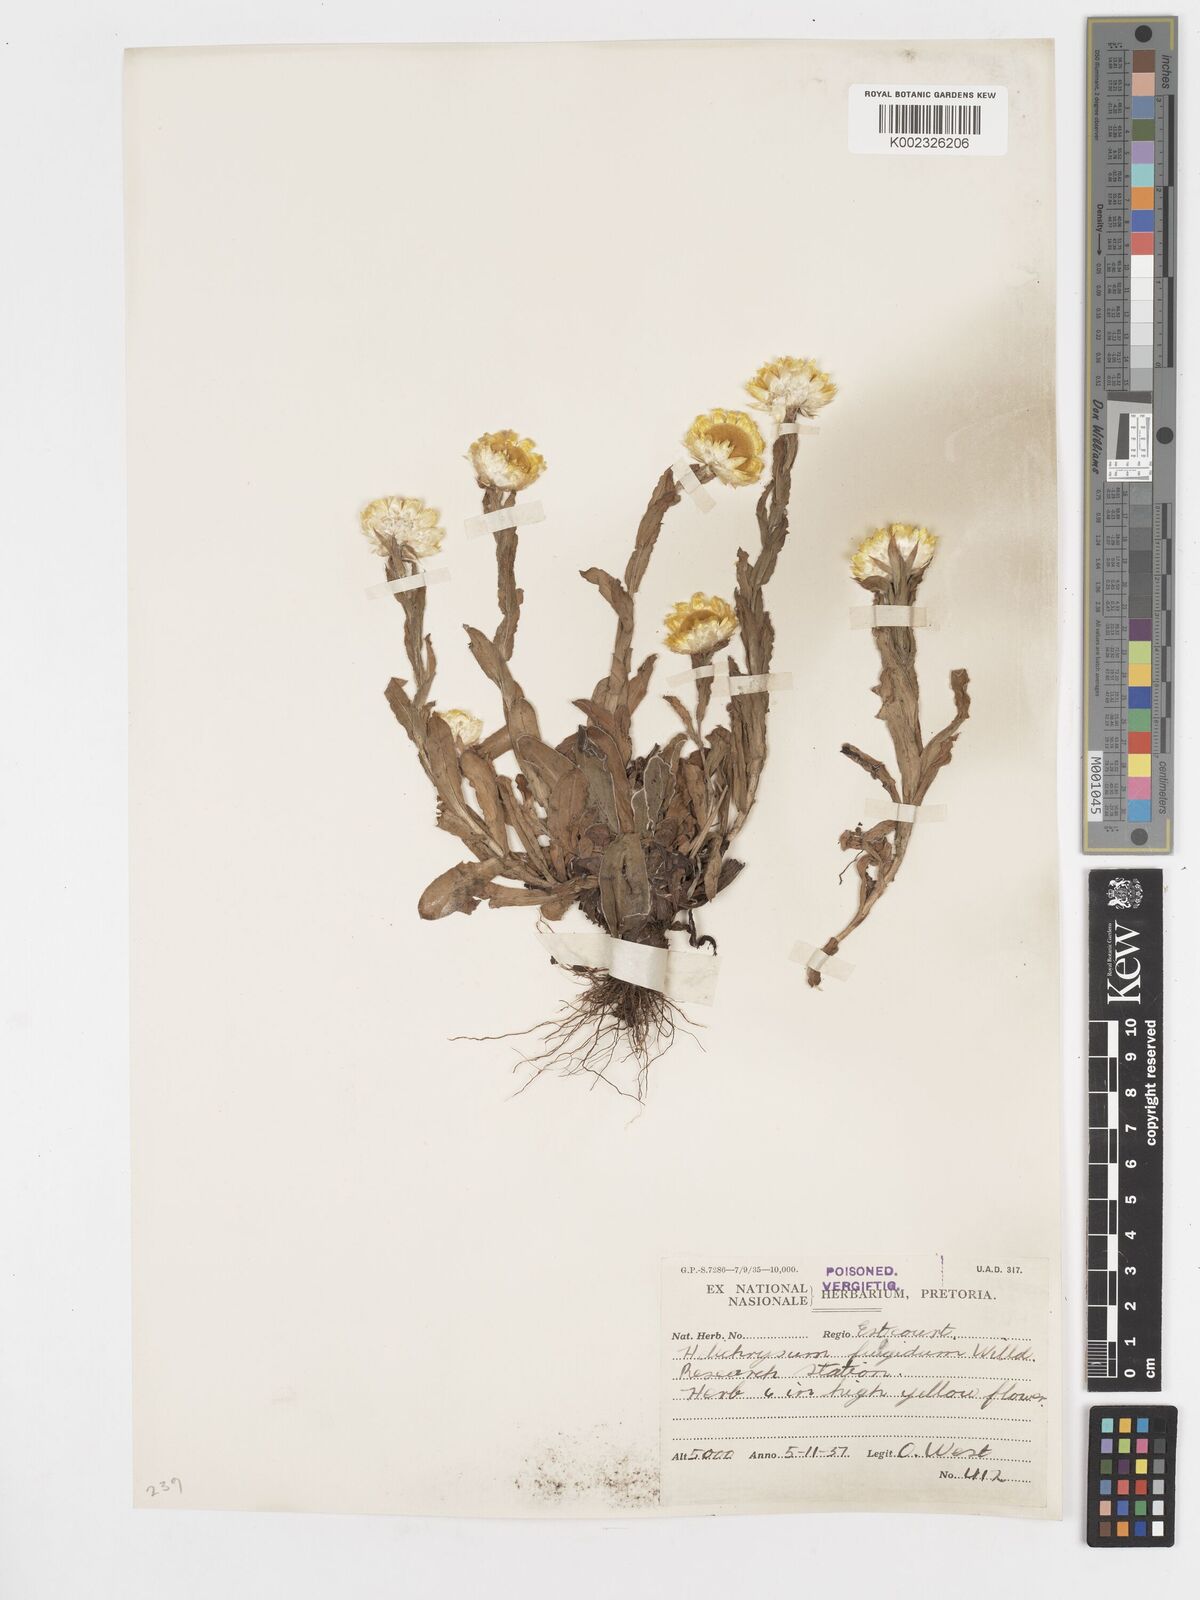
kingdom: Plantae
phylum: Tracheophyta
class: Magnoliopsida
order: Asterales
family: Asteraceae
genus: Helichrysum
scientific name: Helichrysum aureum
